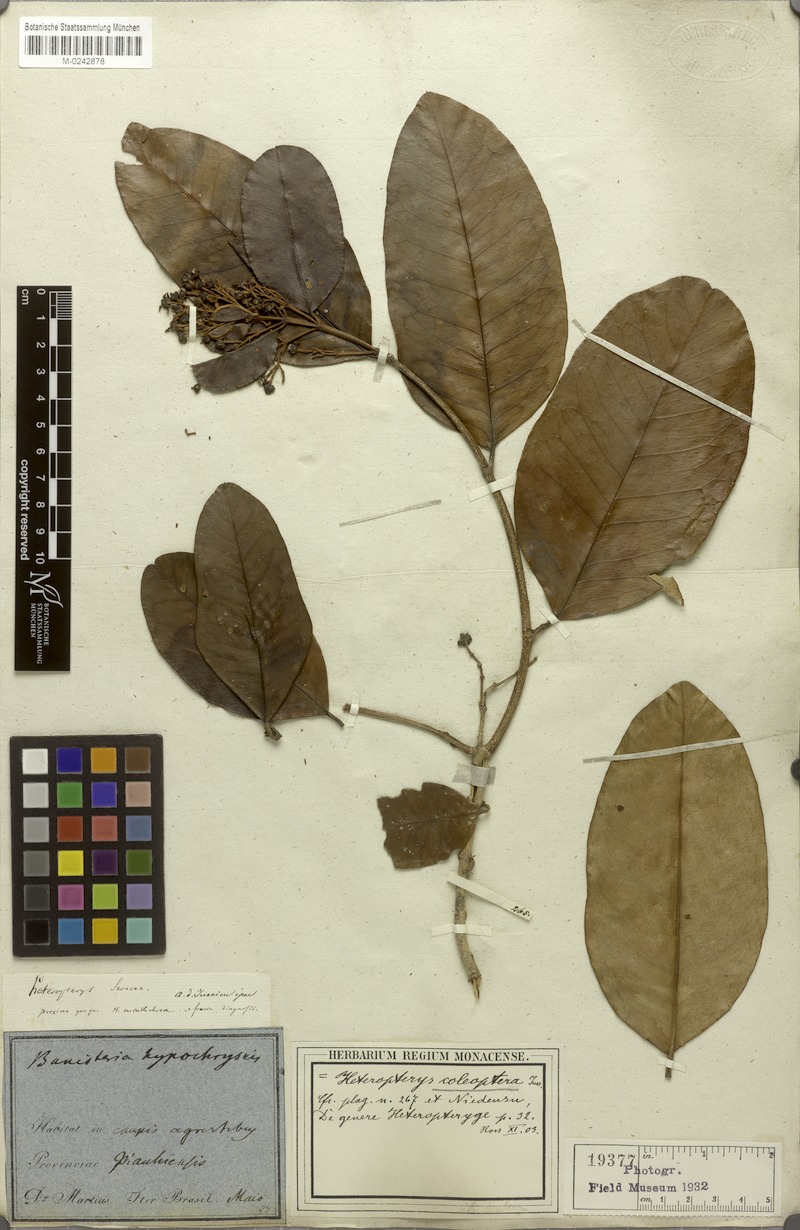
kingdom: Plantae
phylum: Tracheophyta
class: Magnoliopsida
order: Malpighiales
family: Malpighiaceae
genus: Heteropterys
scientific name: Heteropterys coleoptera
